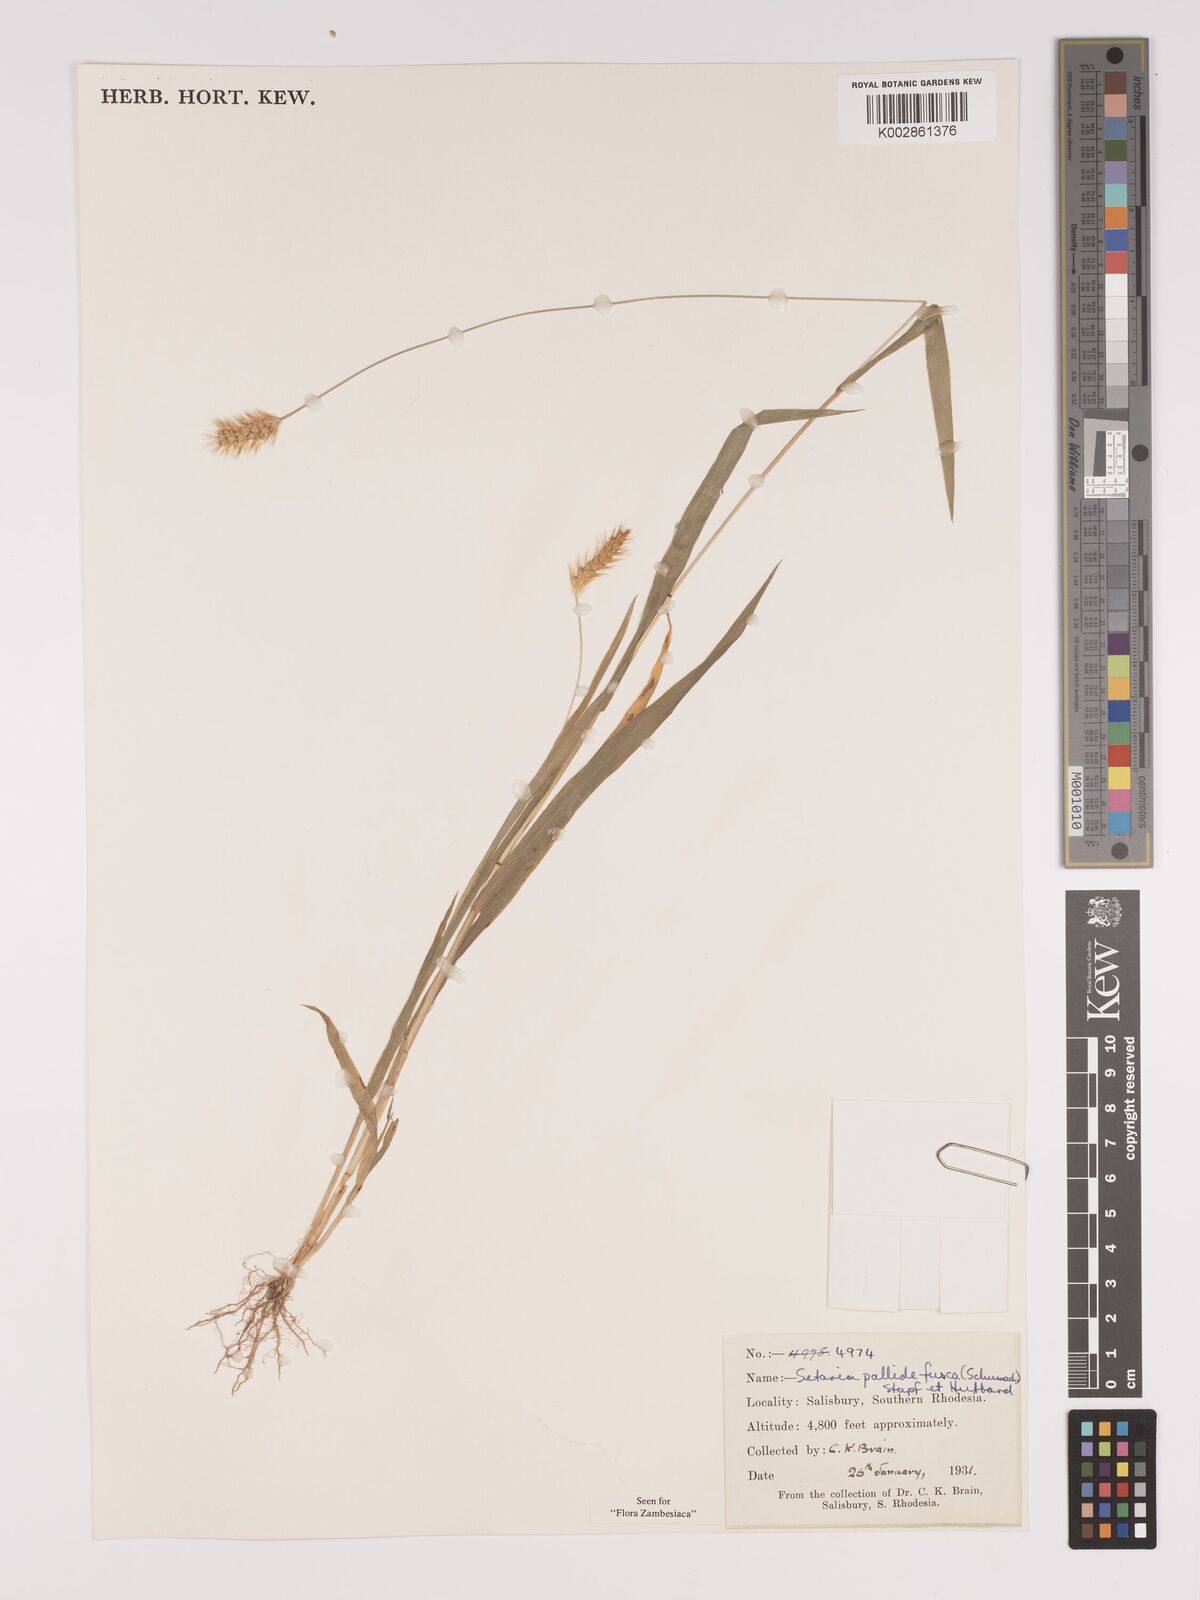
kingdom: Plantae
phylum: Tracheophyta
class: Liliopsida
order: Poales
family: Poaceae
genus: Setaria
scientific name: Setaria pumila
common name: Yellow bristle-grass
